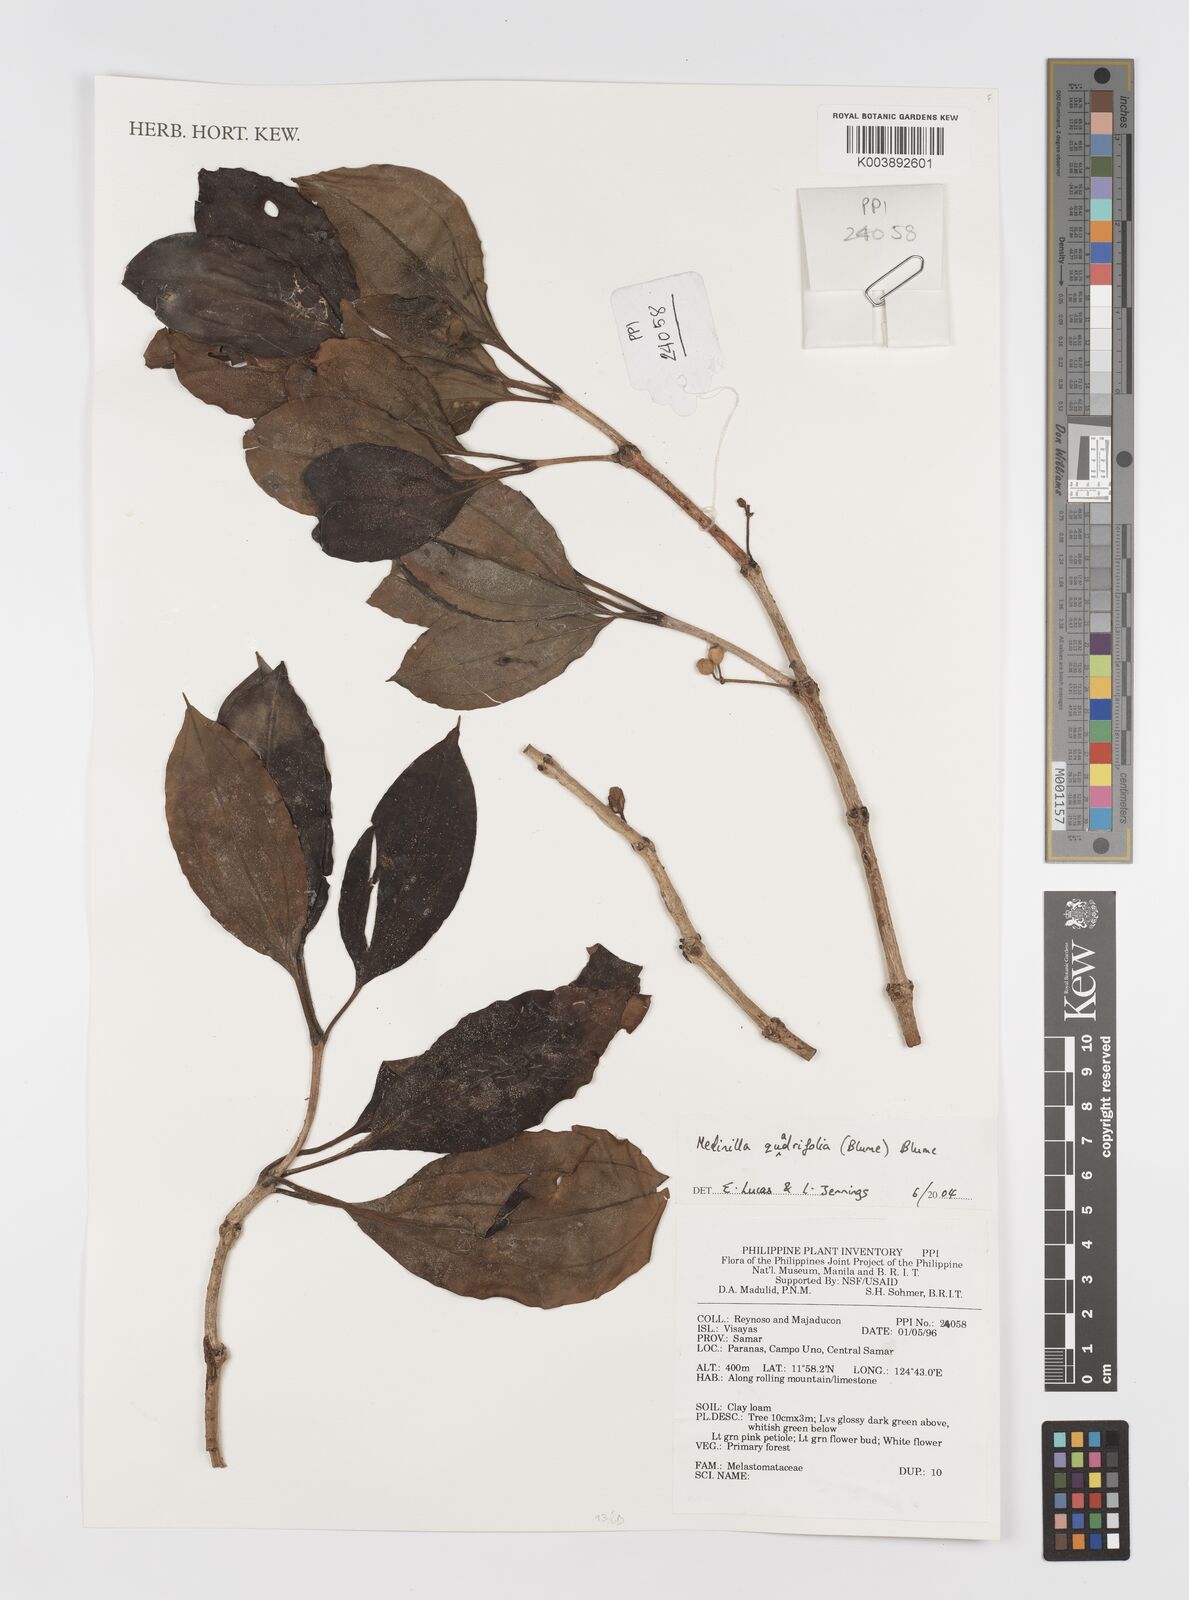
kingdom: Plantae
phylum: Tracheophyta
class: Magnoliopsida
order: Myrtales
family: Melastomataceae
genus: Medinilla
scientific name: Medinilla quadrifolia
